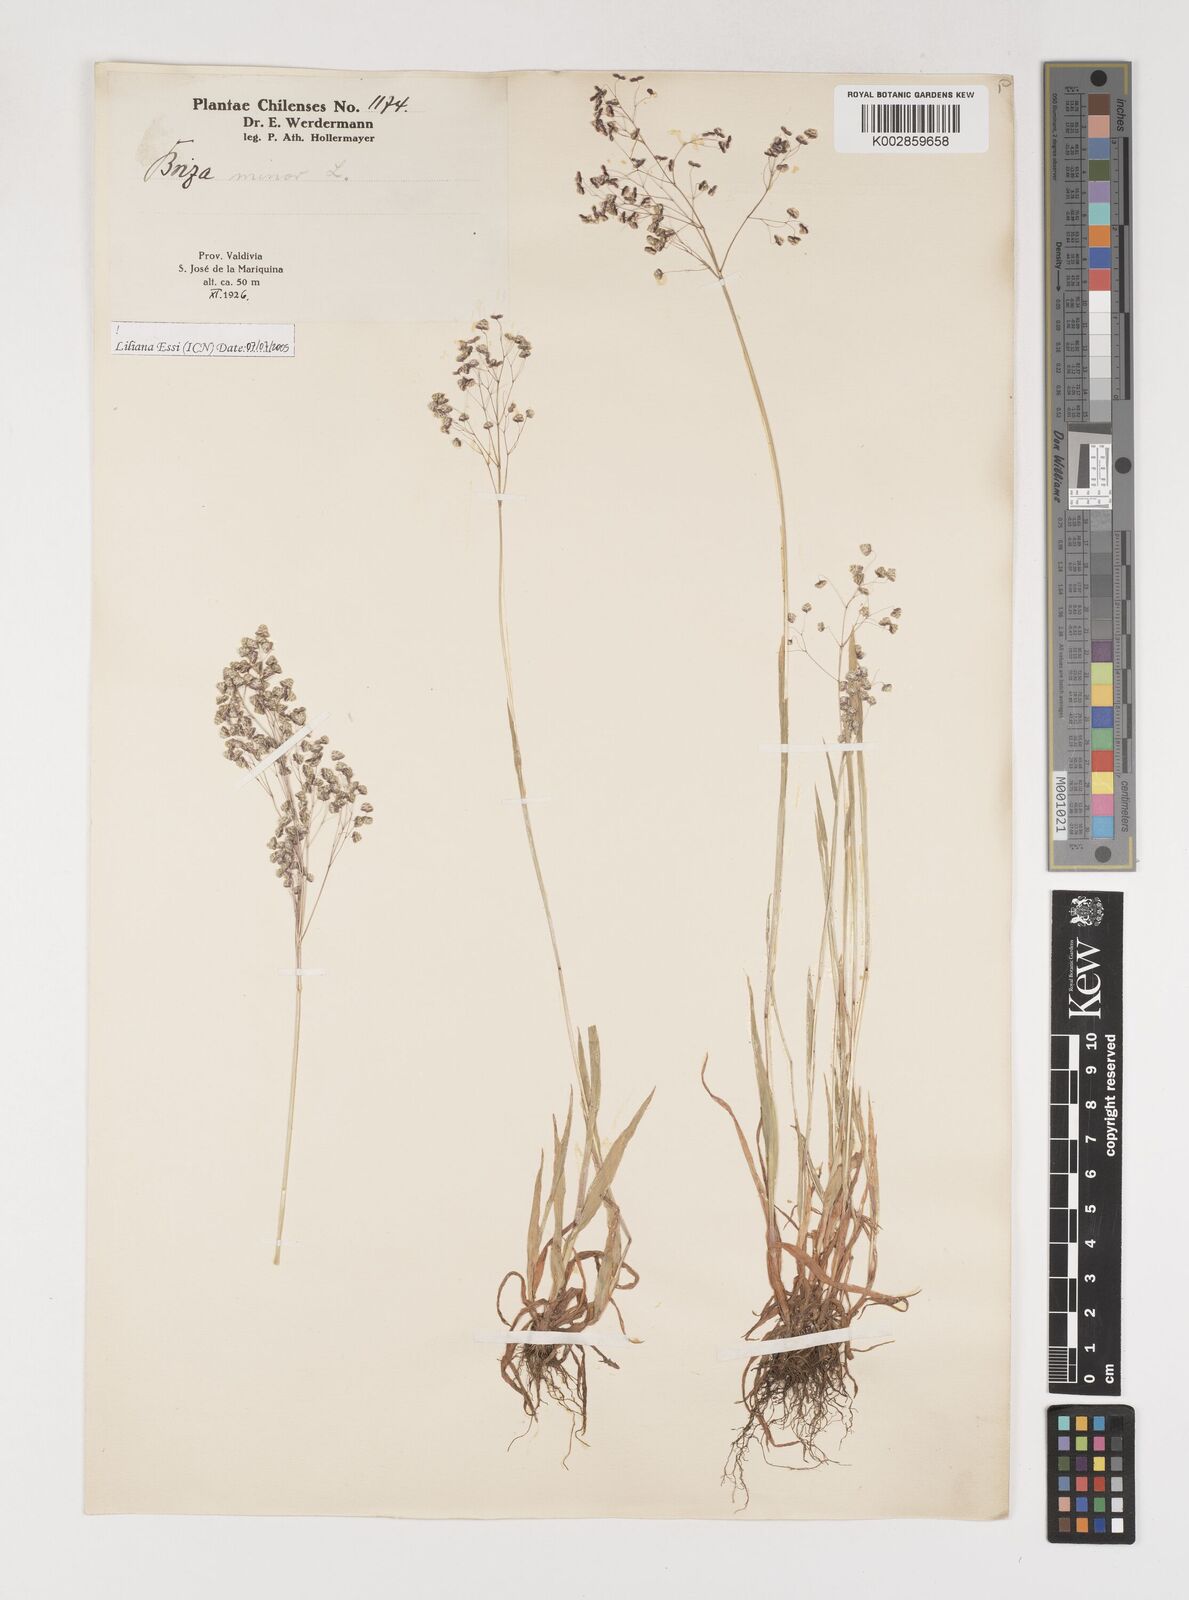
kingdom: Plantae
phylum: Tracheophyta
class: Liliopsida
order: Poales
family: Poaceae
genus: Briza
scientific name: Briza minor
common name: Lesser quaking-grass
